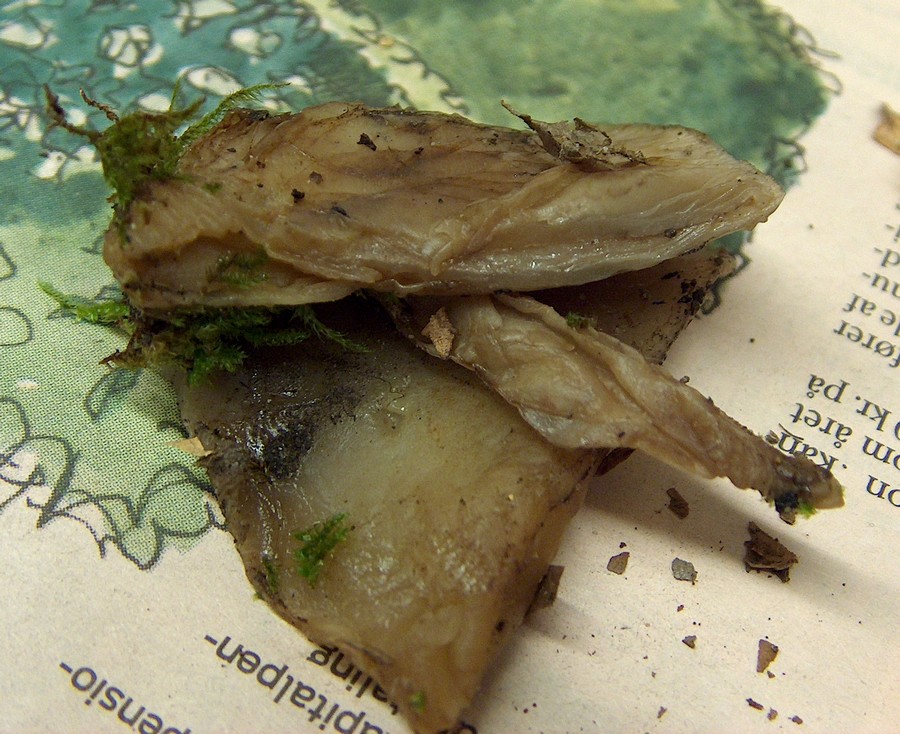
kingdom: Fungi
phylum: Basidiomycota
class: Agaricomycetes
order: Agaricales
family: Crepidotaceae
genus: Crepidotus
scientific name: Crepidotus mollis
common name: blød muslingesvamp
